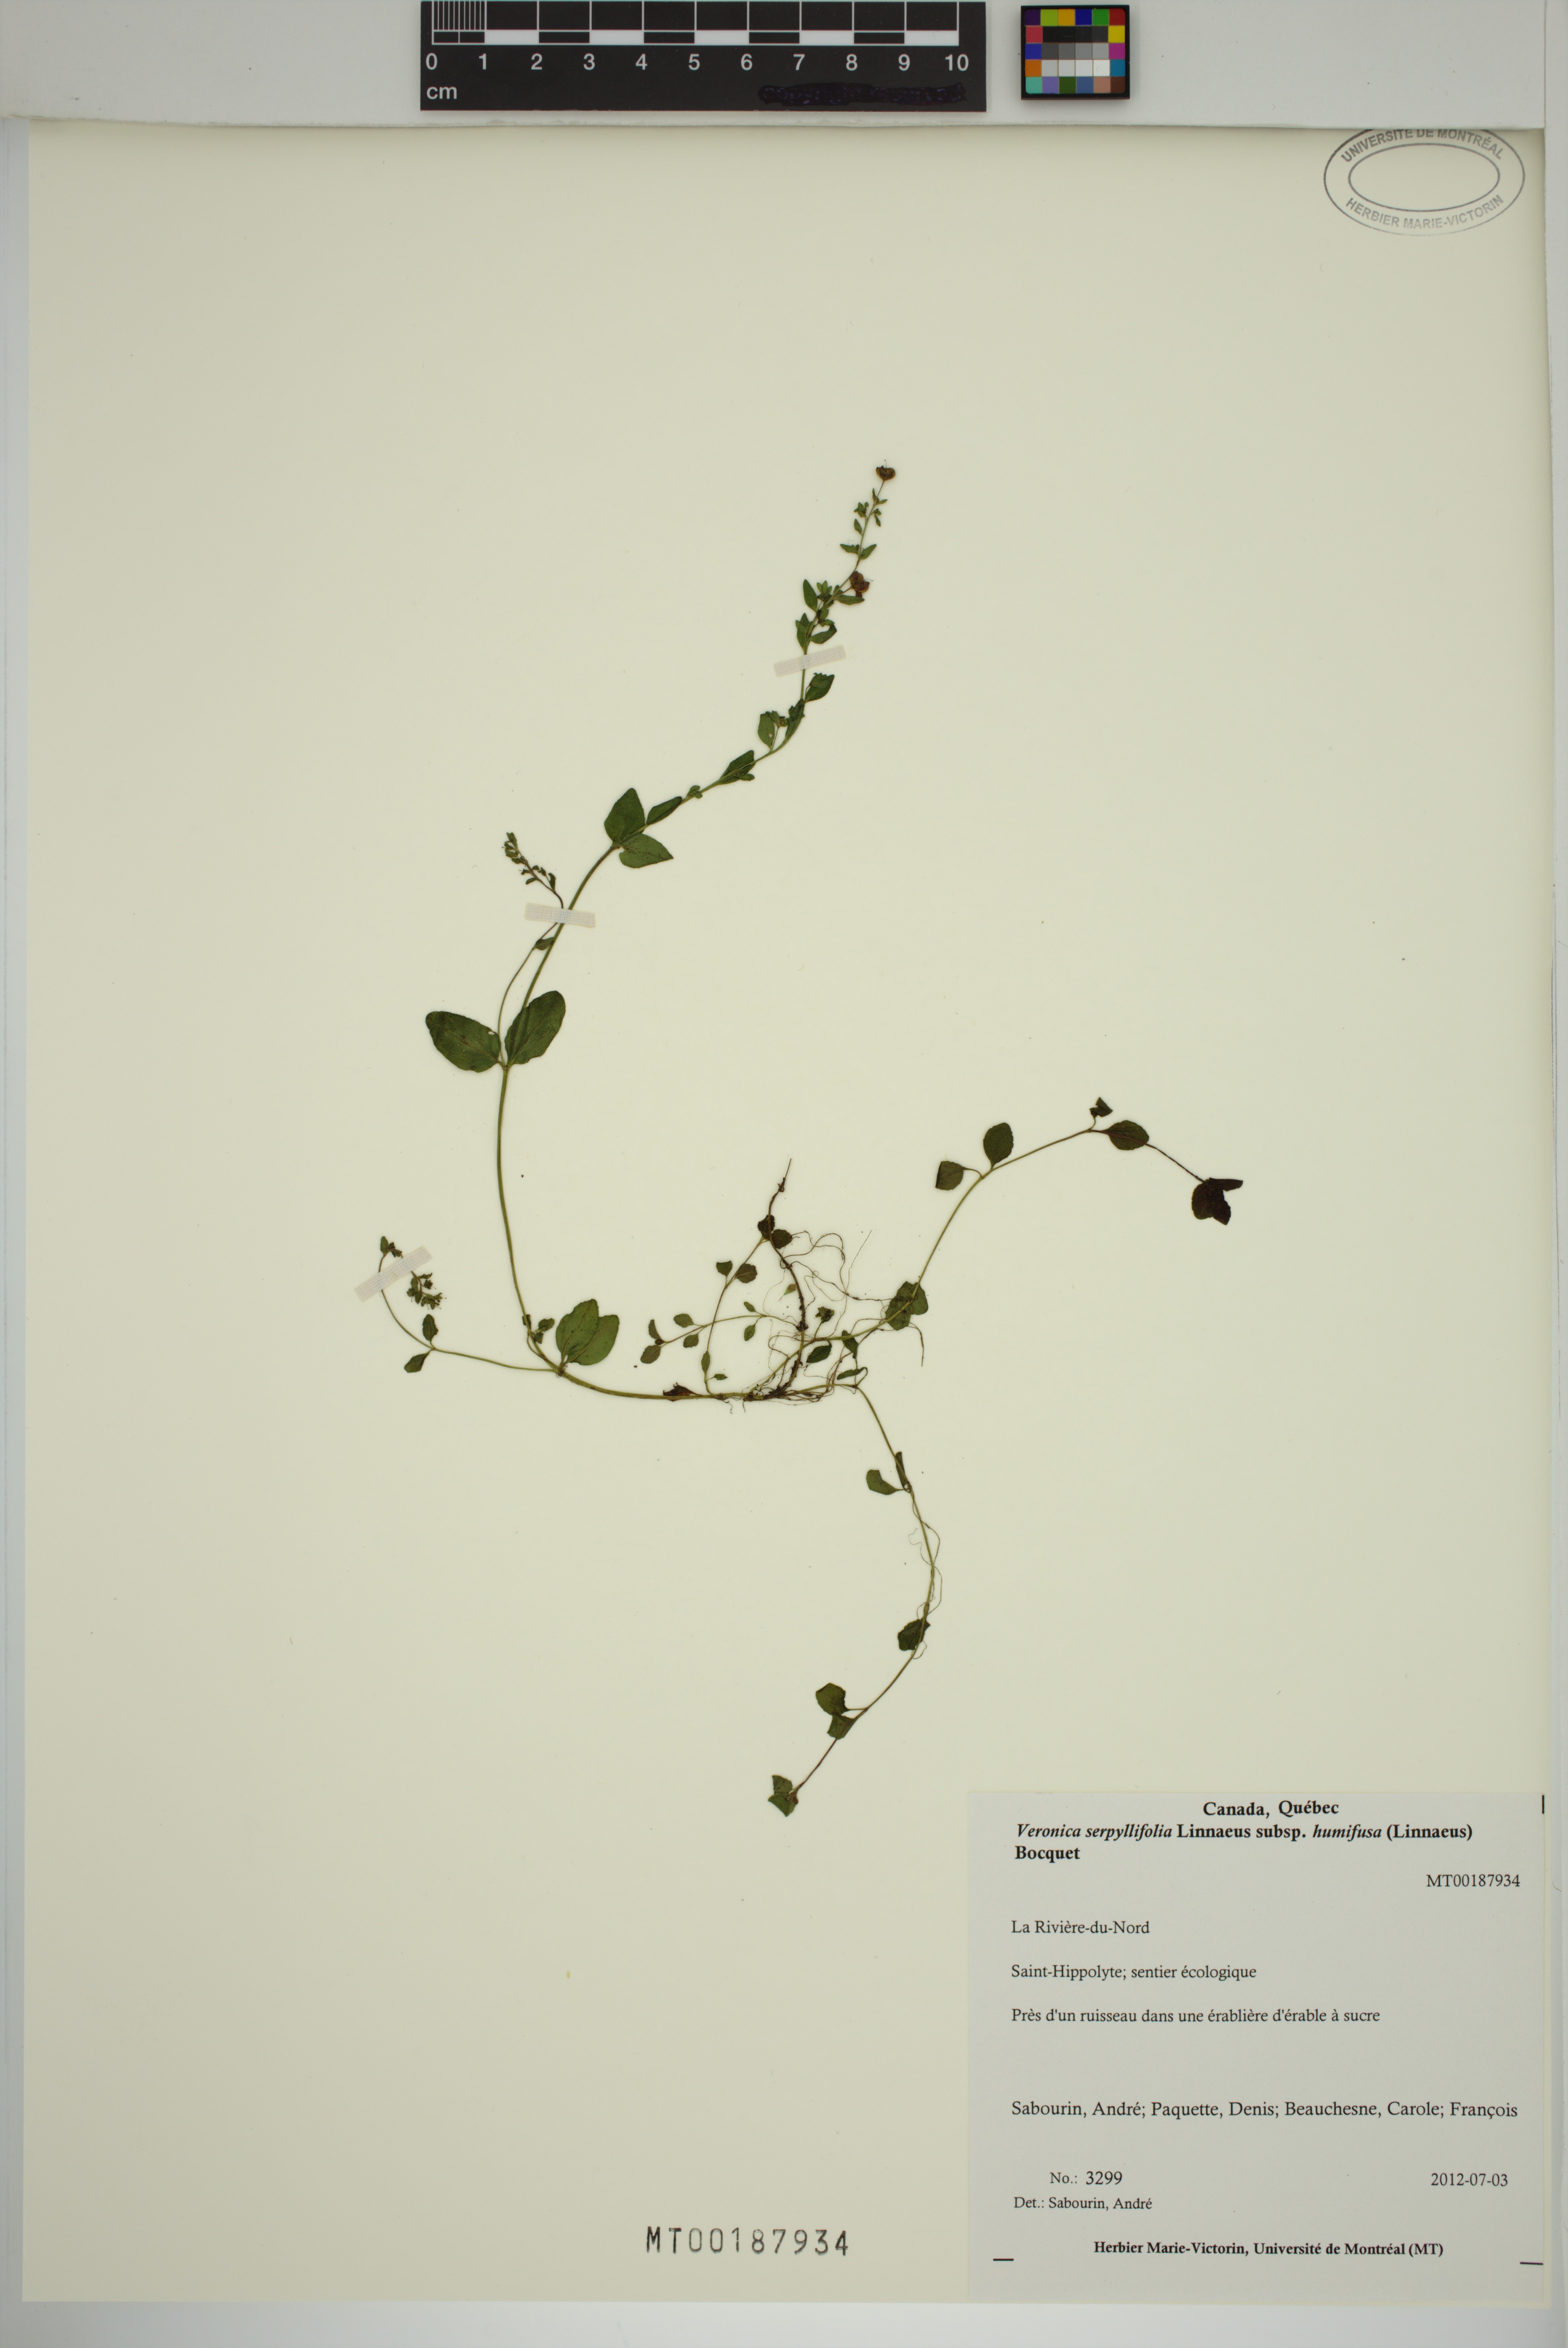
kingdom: Plantae
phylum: Tracheophyta
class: Magnoliopsida
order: Lamiales
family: Plantaginaceae
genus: Veronica
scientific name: Veronica serpyllifolia
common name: Thyme-leaved speedwell
